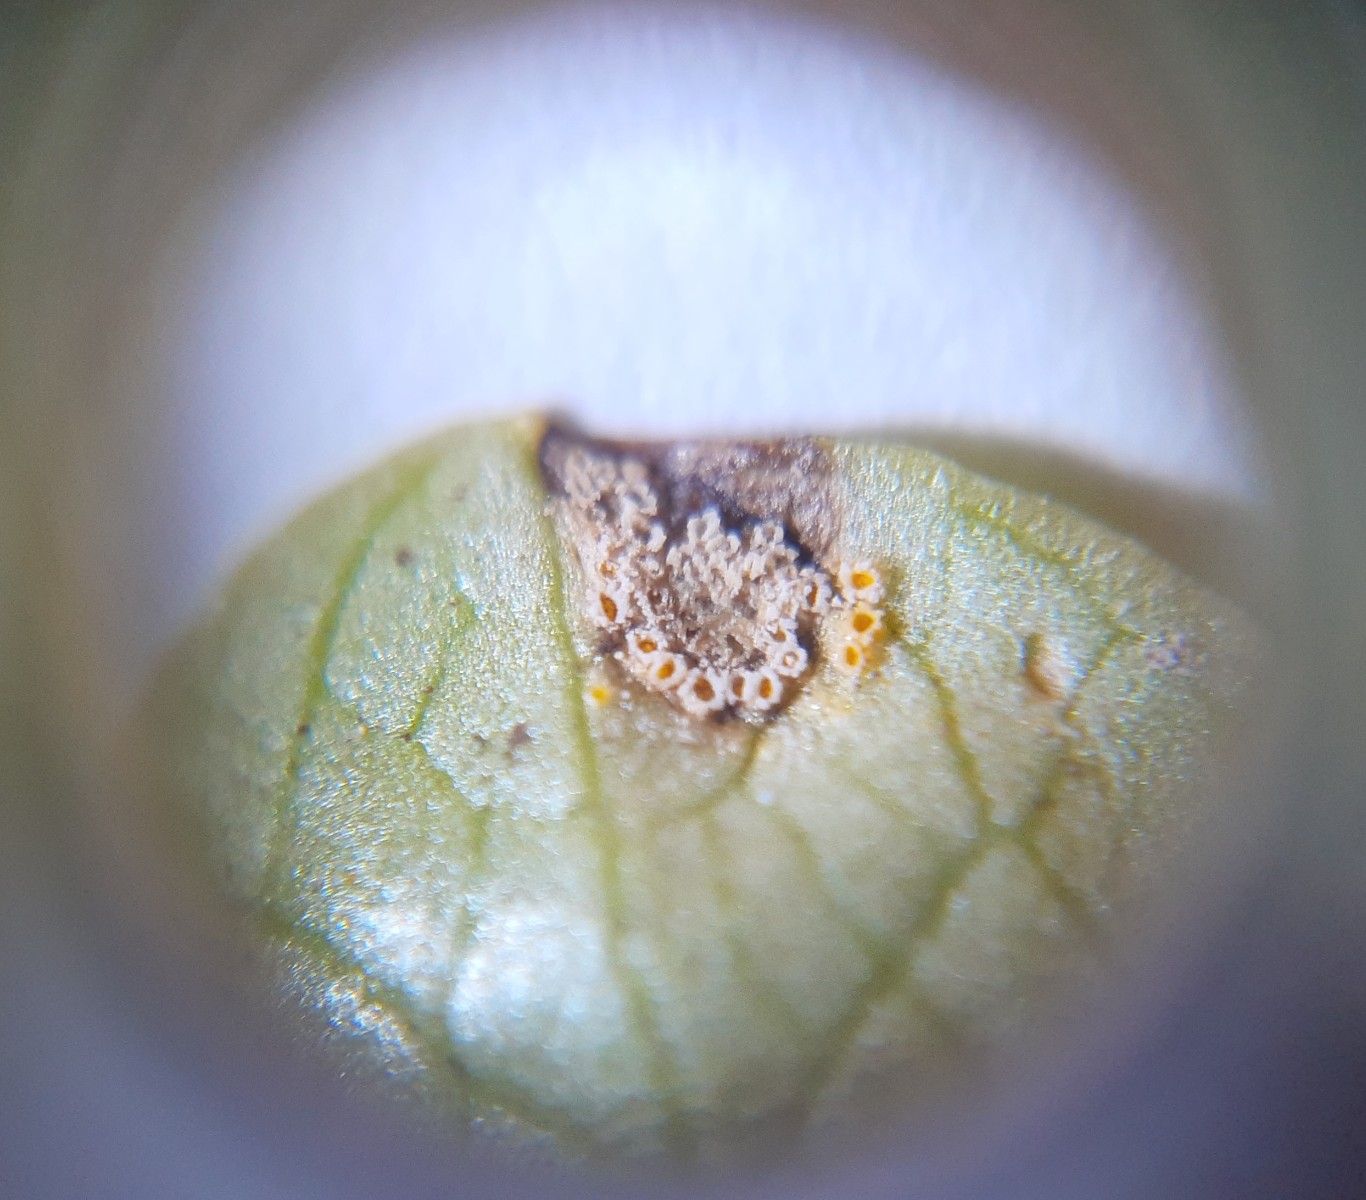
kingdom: Fungi
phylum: Basidiomycota
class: Pucciniomycetes
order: Pucciniales
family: Pucciniaceae
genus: Uromyces
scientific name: Uromyces dactylidis
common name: ranunkel-encellerust
